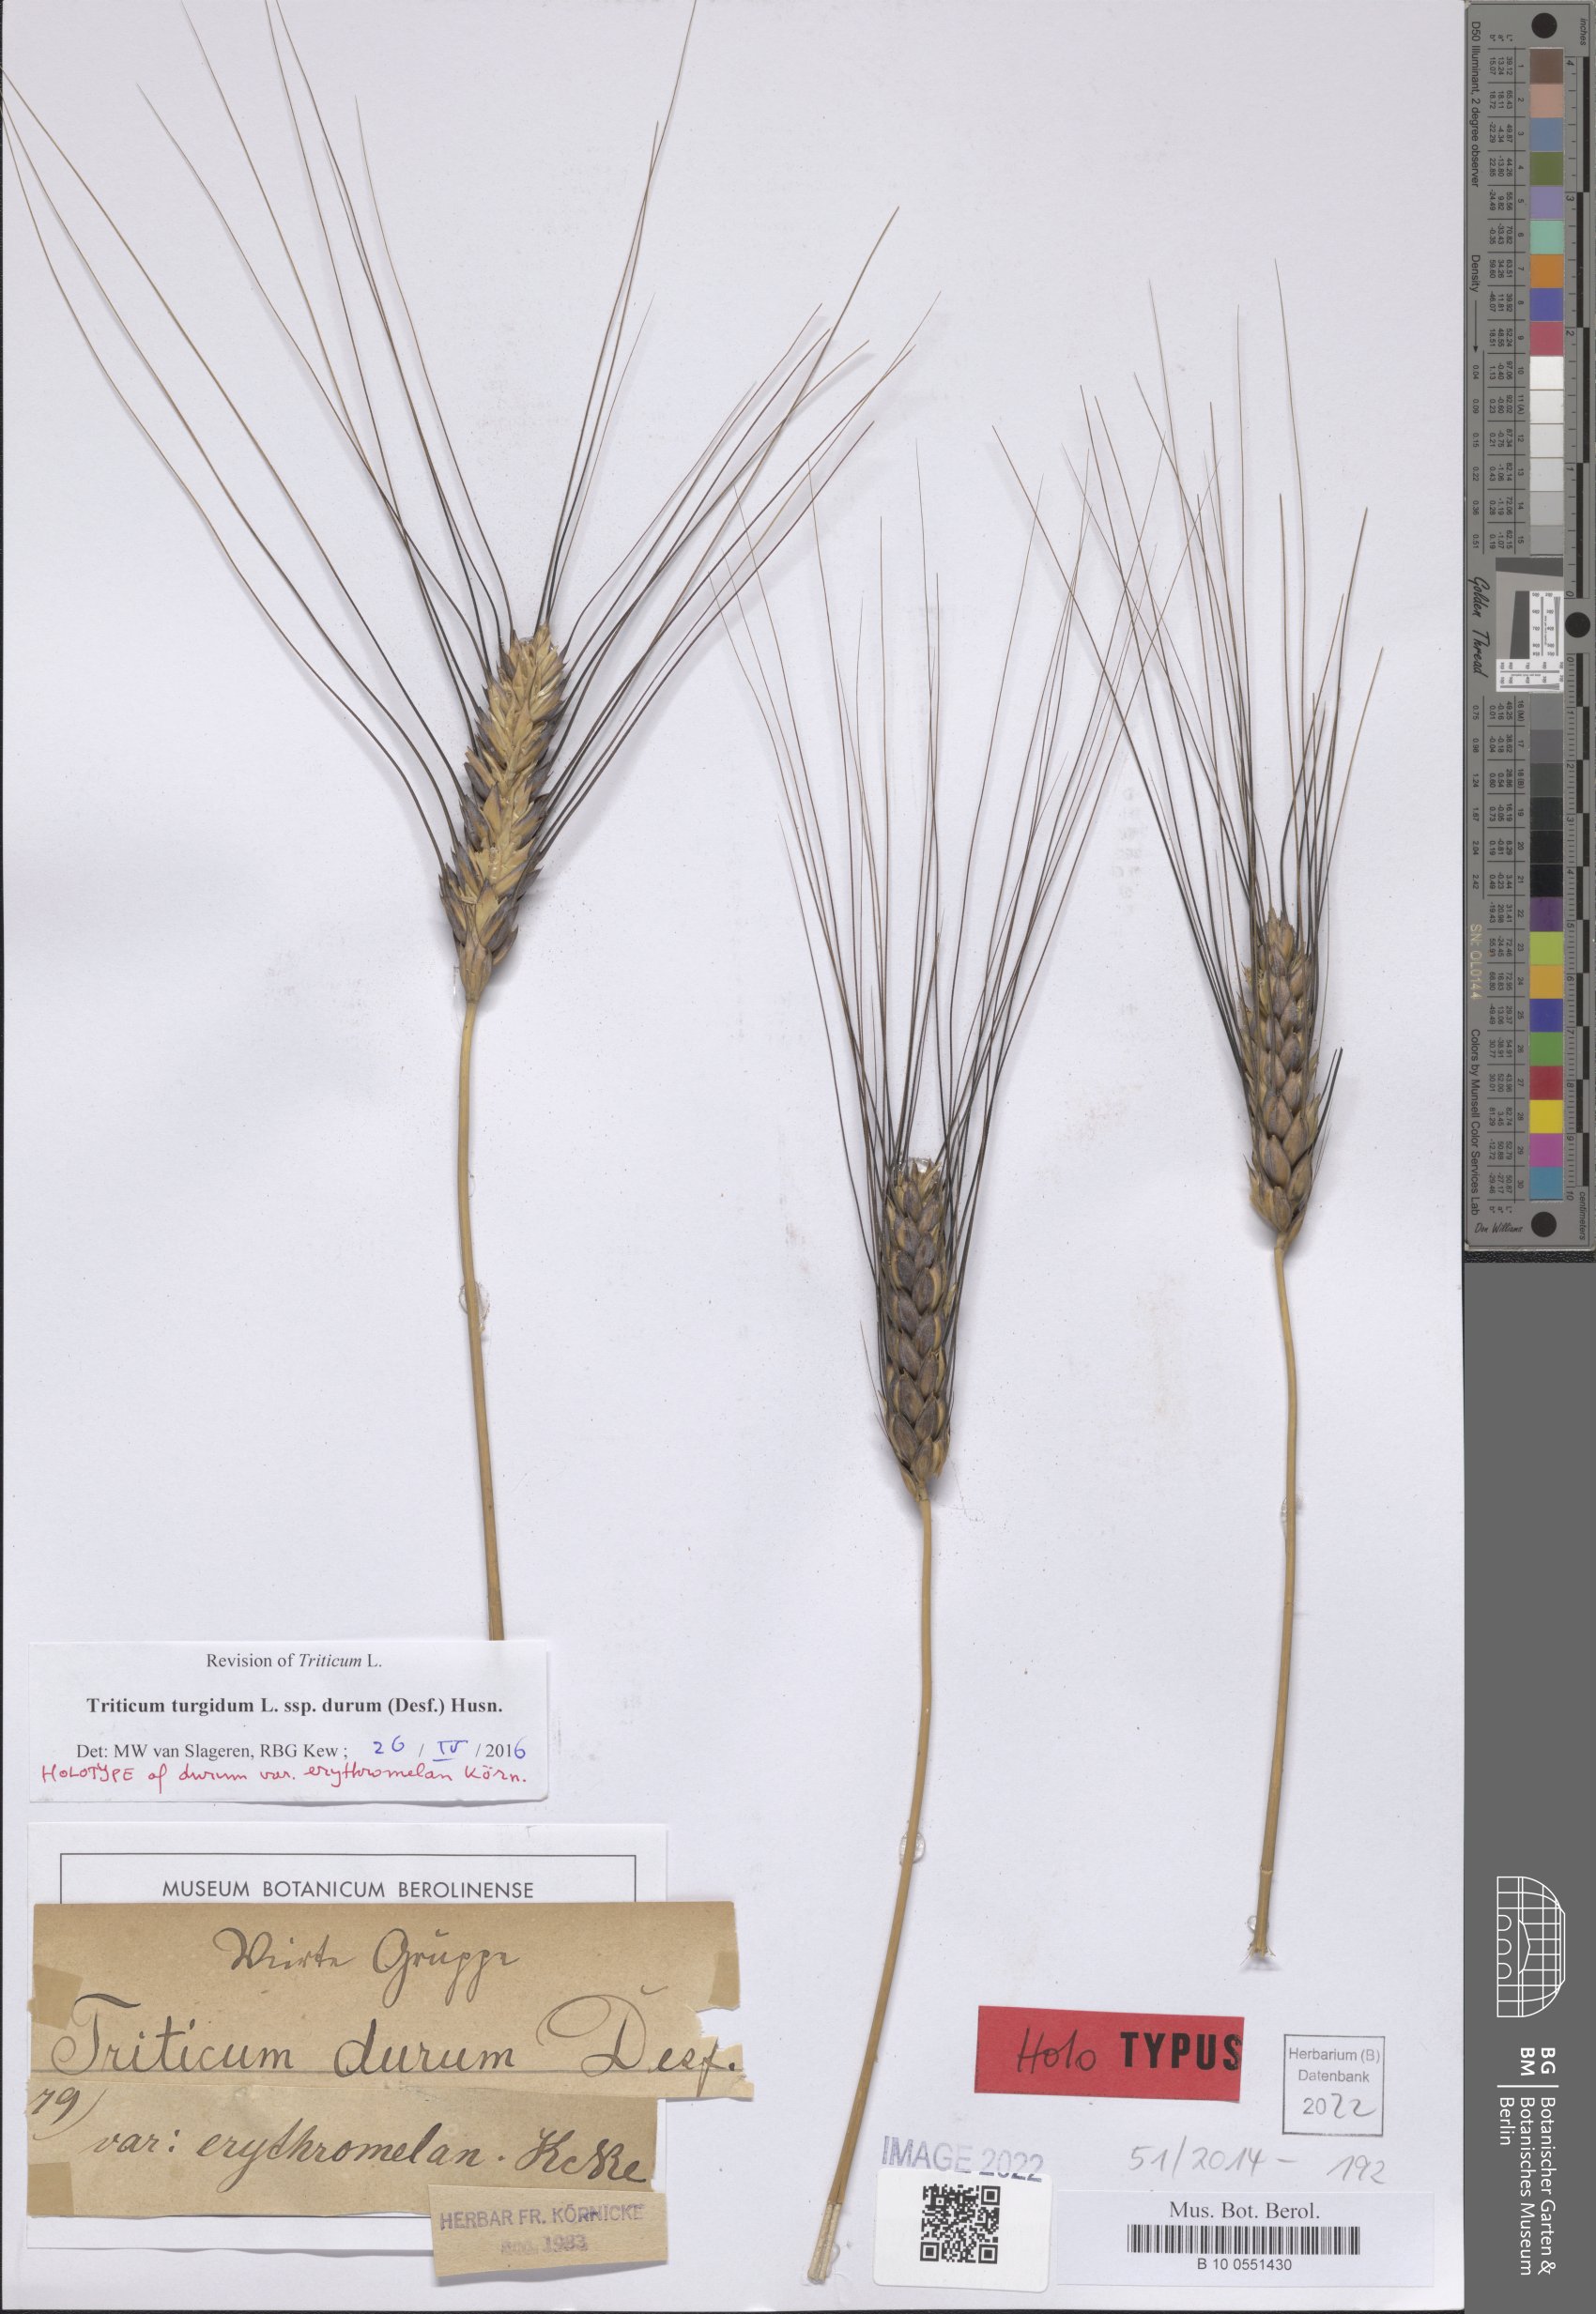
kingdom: Plantae
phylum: Tracheophyta
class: Liliopsida
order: Poales
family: Poaceae
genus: Triticum
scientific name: Triticum turgidum
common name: Rivet wheat
